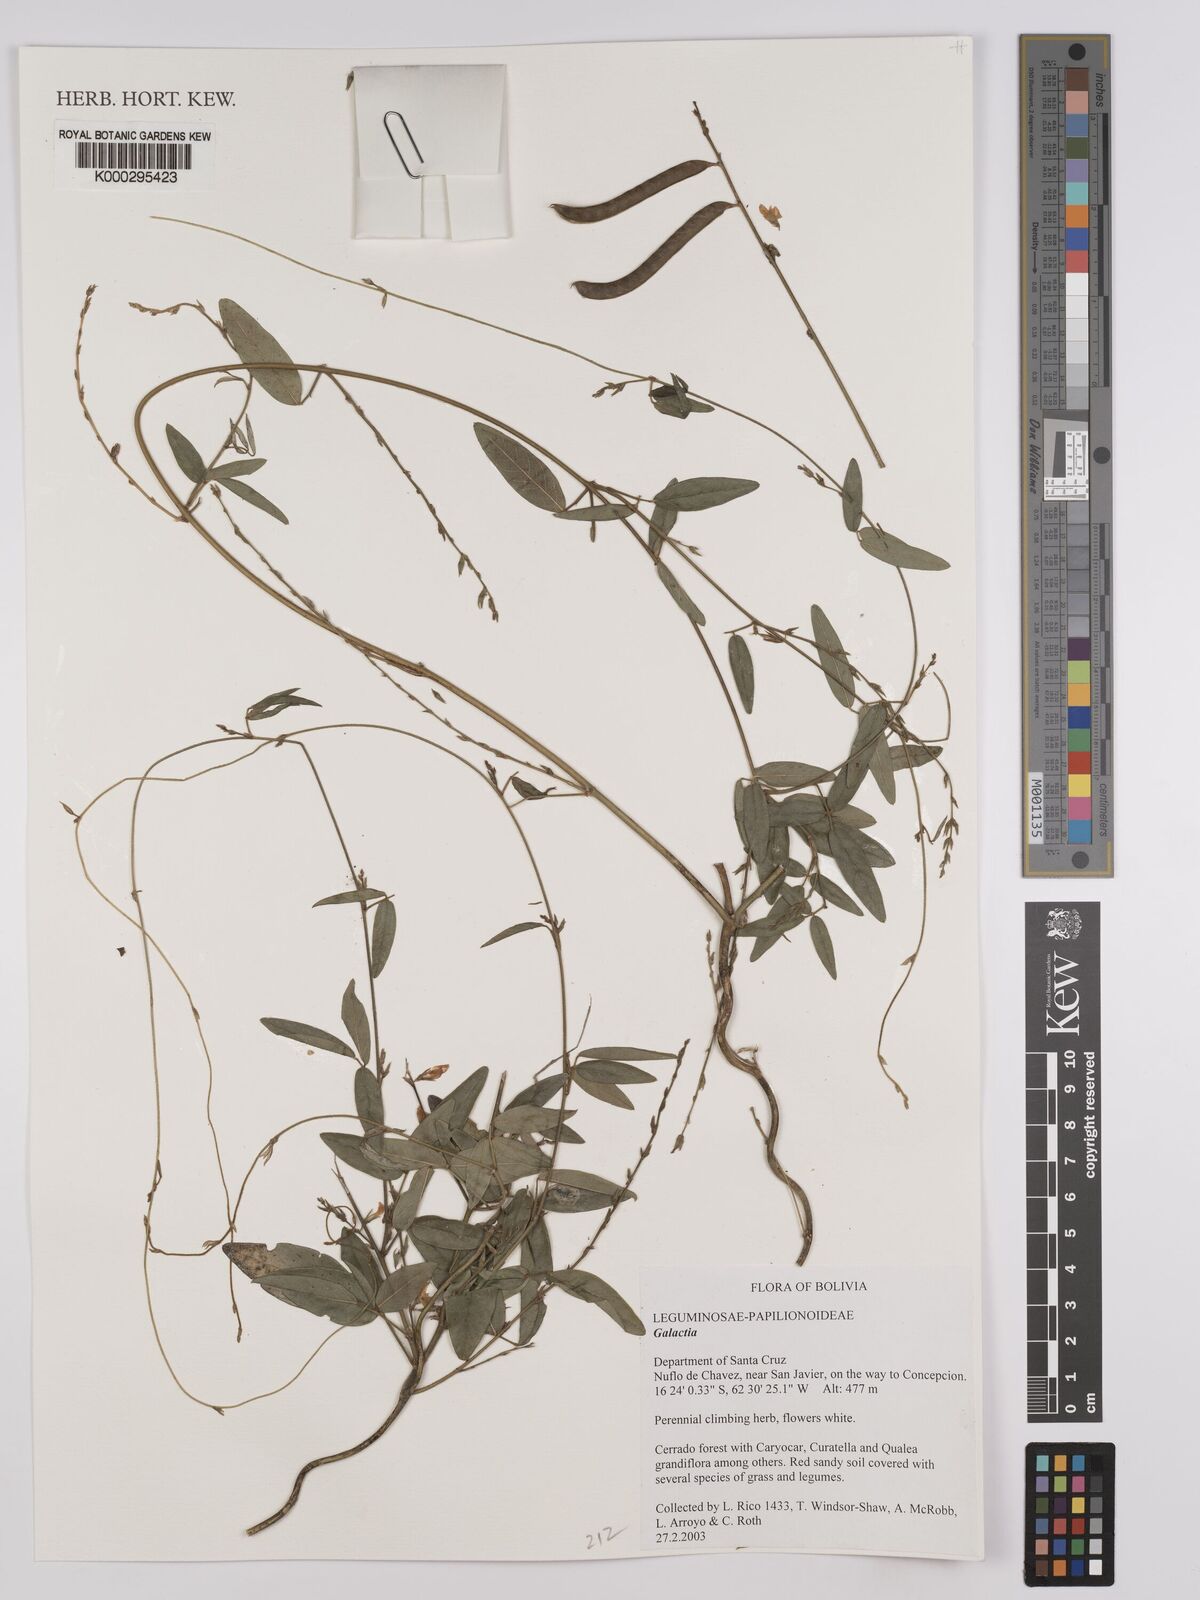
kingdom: Plantae
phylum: Tracheophyta
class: Magnoliopsida
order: Fabales
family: Fabaceae
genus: Galactia
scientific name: Galactia striata
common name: Florida hammock milkpea
